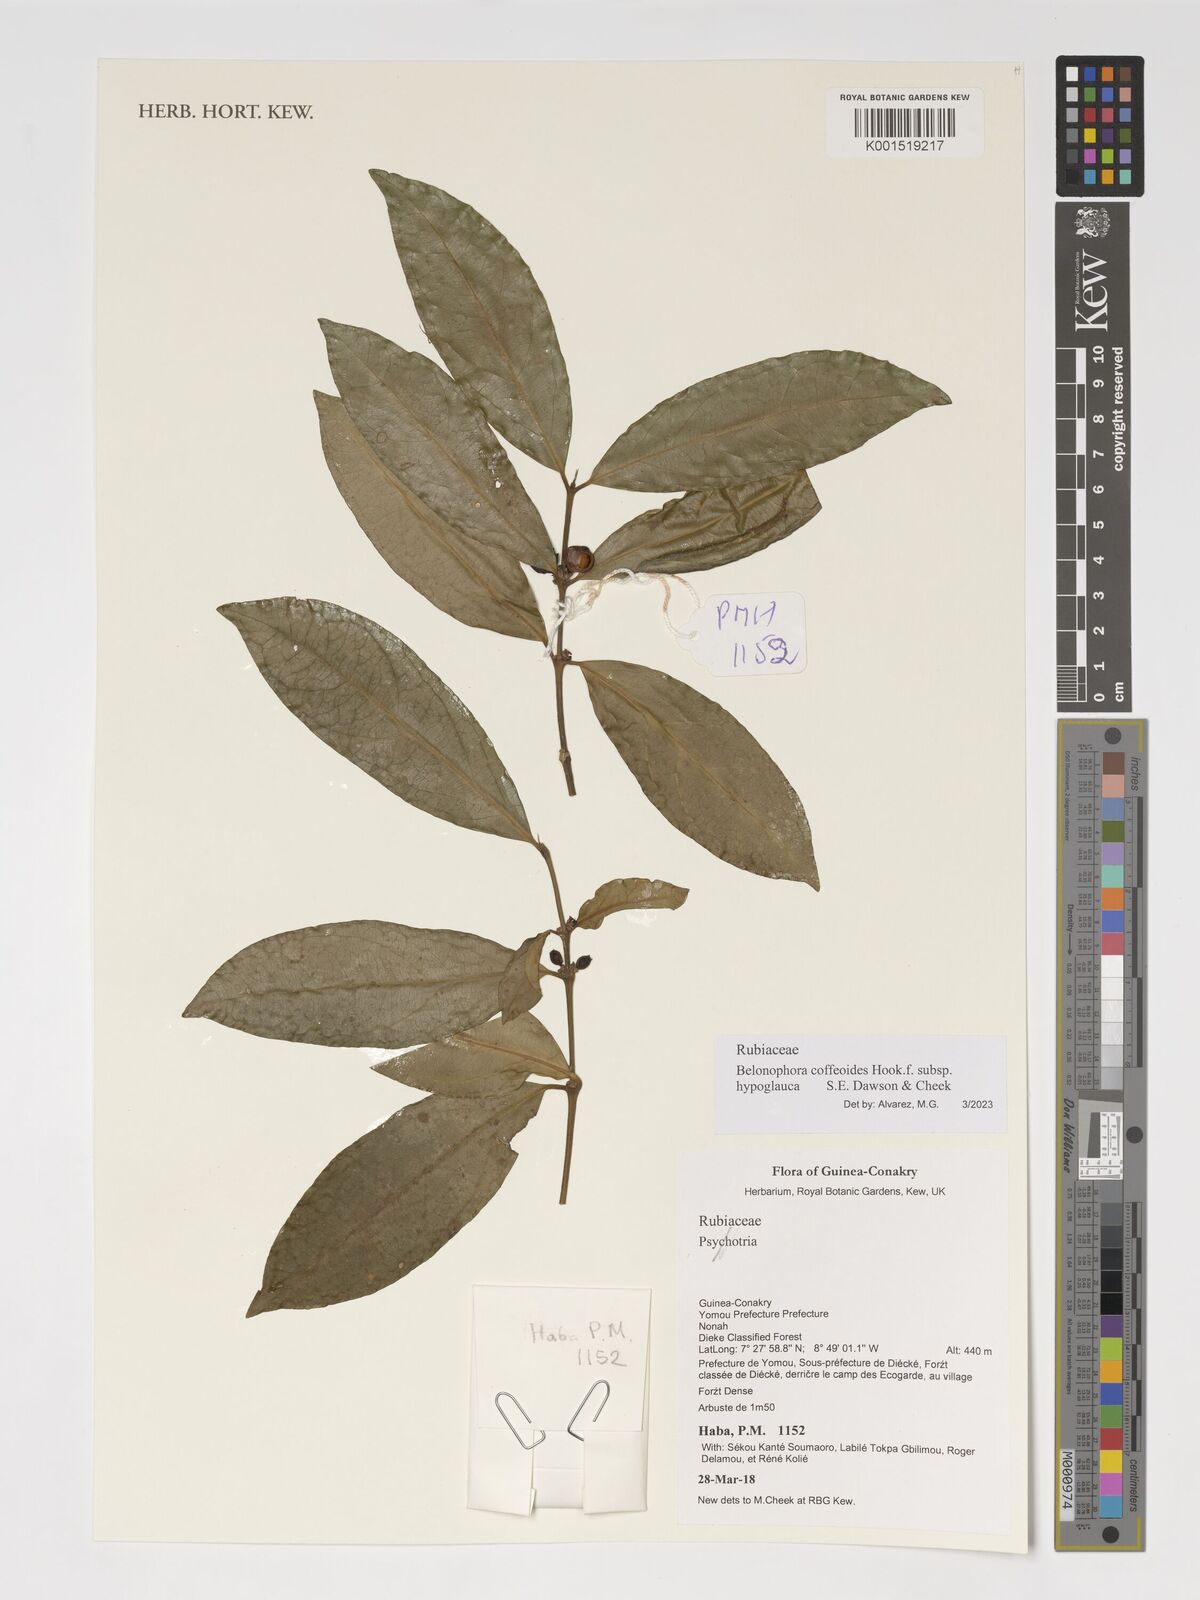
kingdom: Plantae
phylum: Tracheophyta
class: Magnoliopsida
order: Gentianales
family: Rubiaceae
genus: Belonophora
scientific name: Belonophora coffeoides
